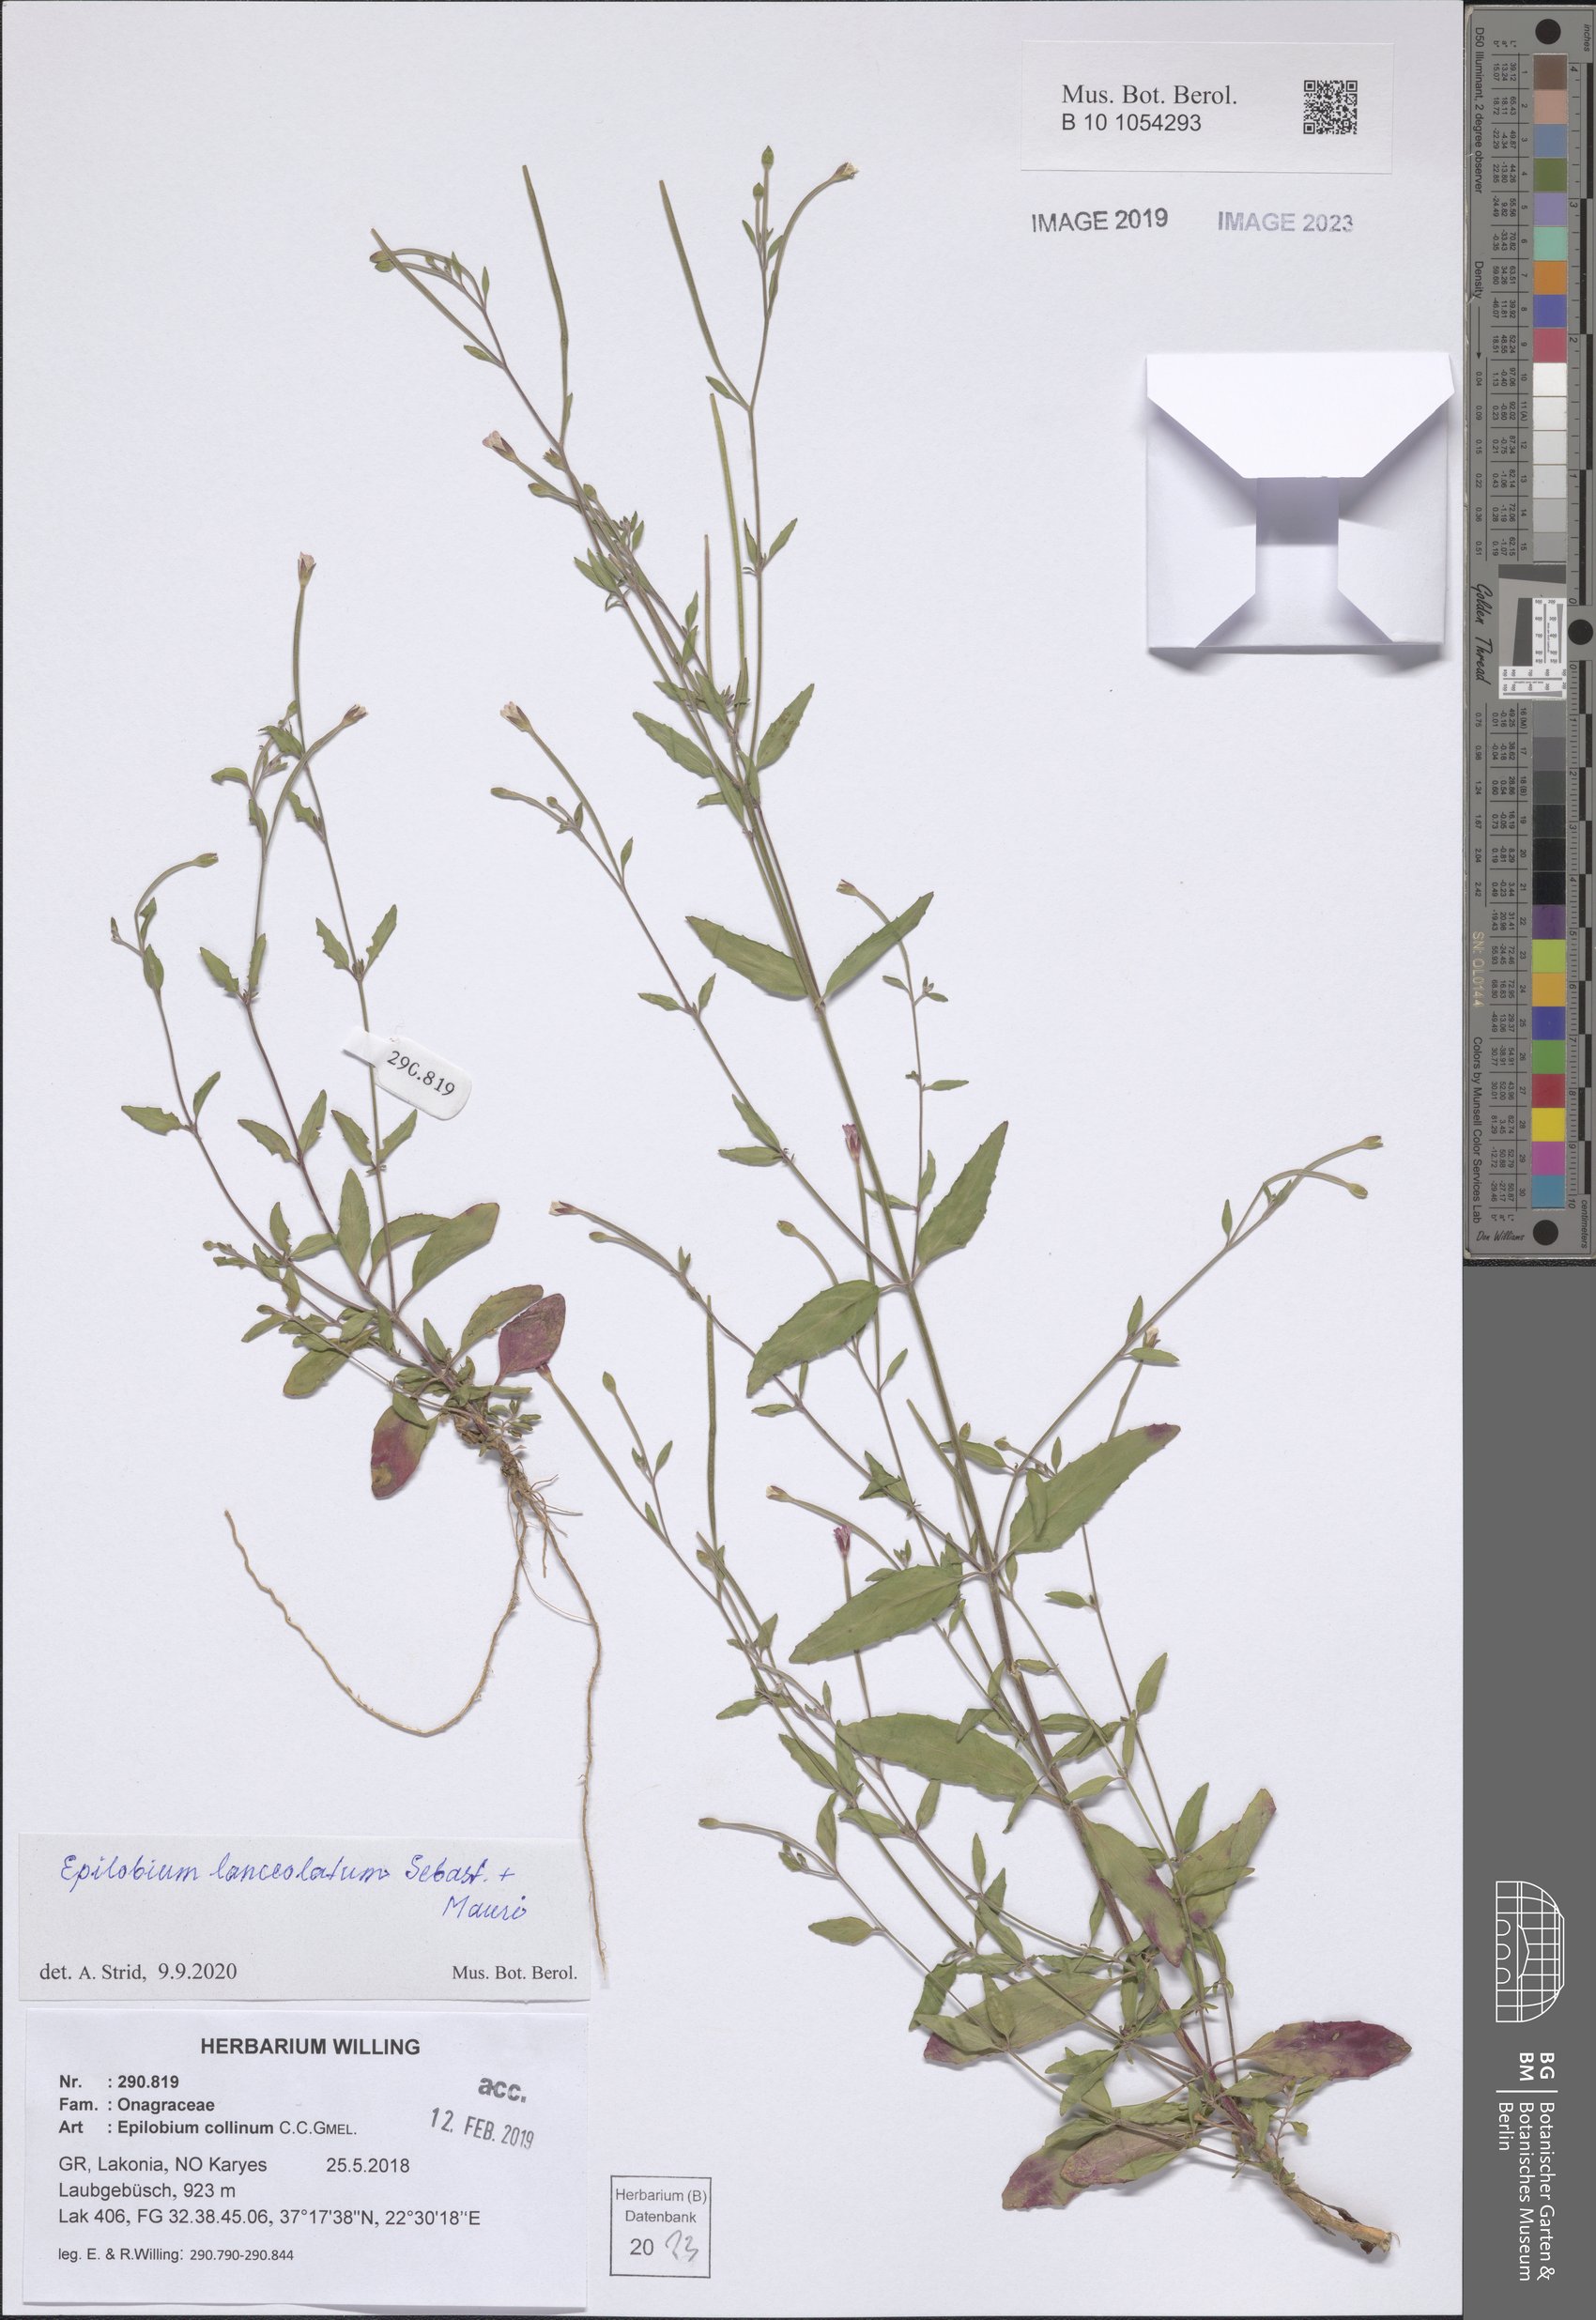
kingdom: Plantae
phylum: Tracheophyta
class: Magnoliopsida
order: Myrtales
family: Onagraceae
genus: Epilobium
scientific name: Epilobium lanceolatum
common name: Spear-leaved willowherb
